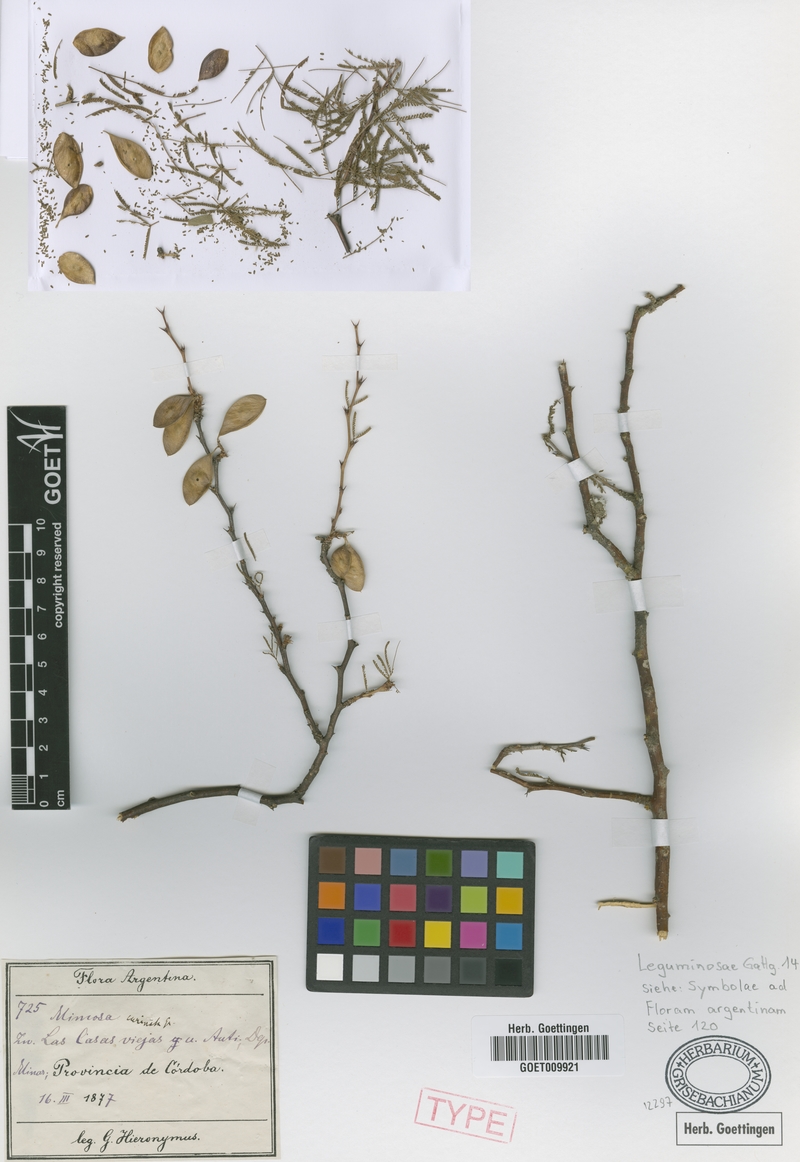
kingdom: Plantae
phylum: Tracheophyta
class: Magnoliopsida
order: Fabales
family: Fabaceae
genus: Mimozyganthus
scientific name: Mimozyganthus carinatus
